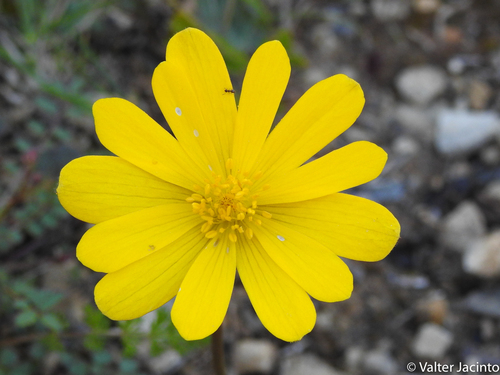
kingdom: Plantae
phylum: Tracheophyta
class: Magnoliopsida
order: Ranunculales
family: Ranunculaceae
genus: Anemone
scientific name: Anemone palmata
